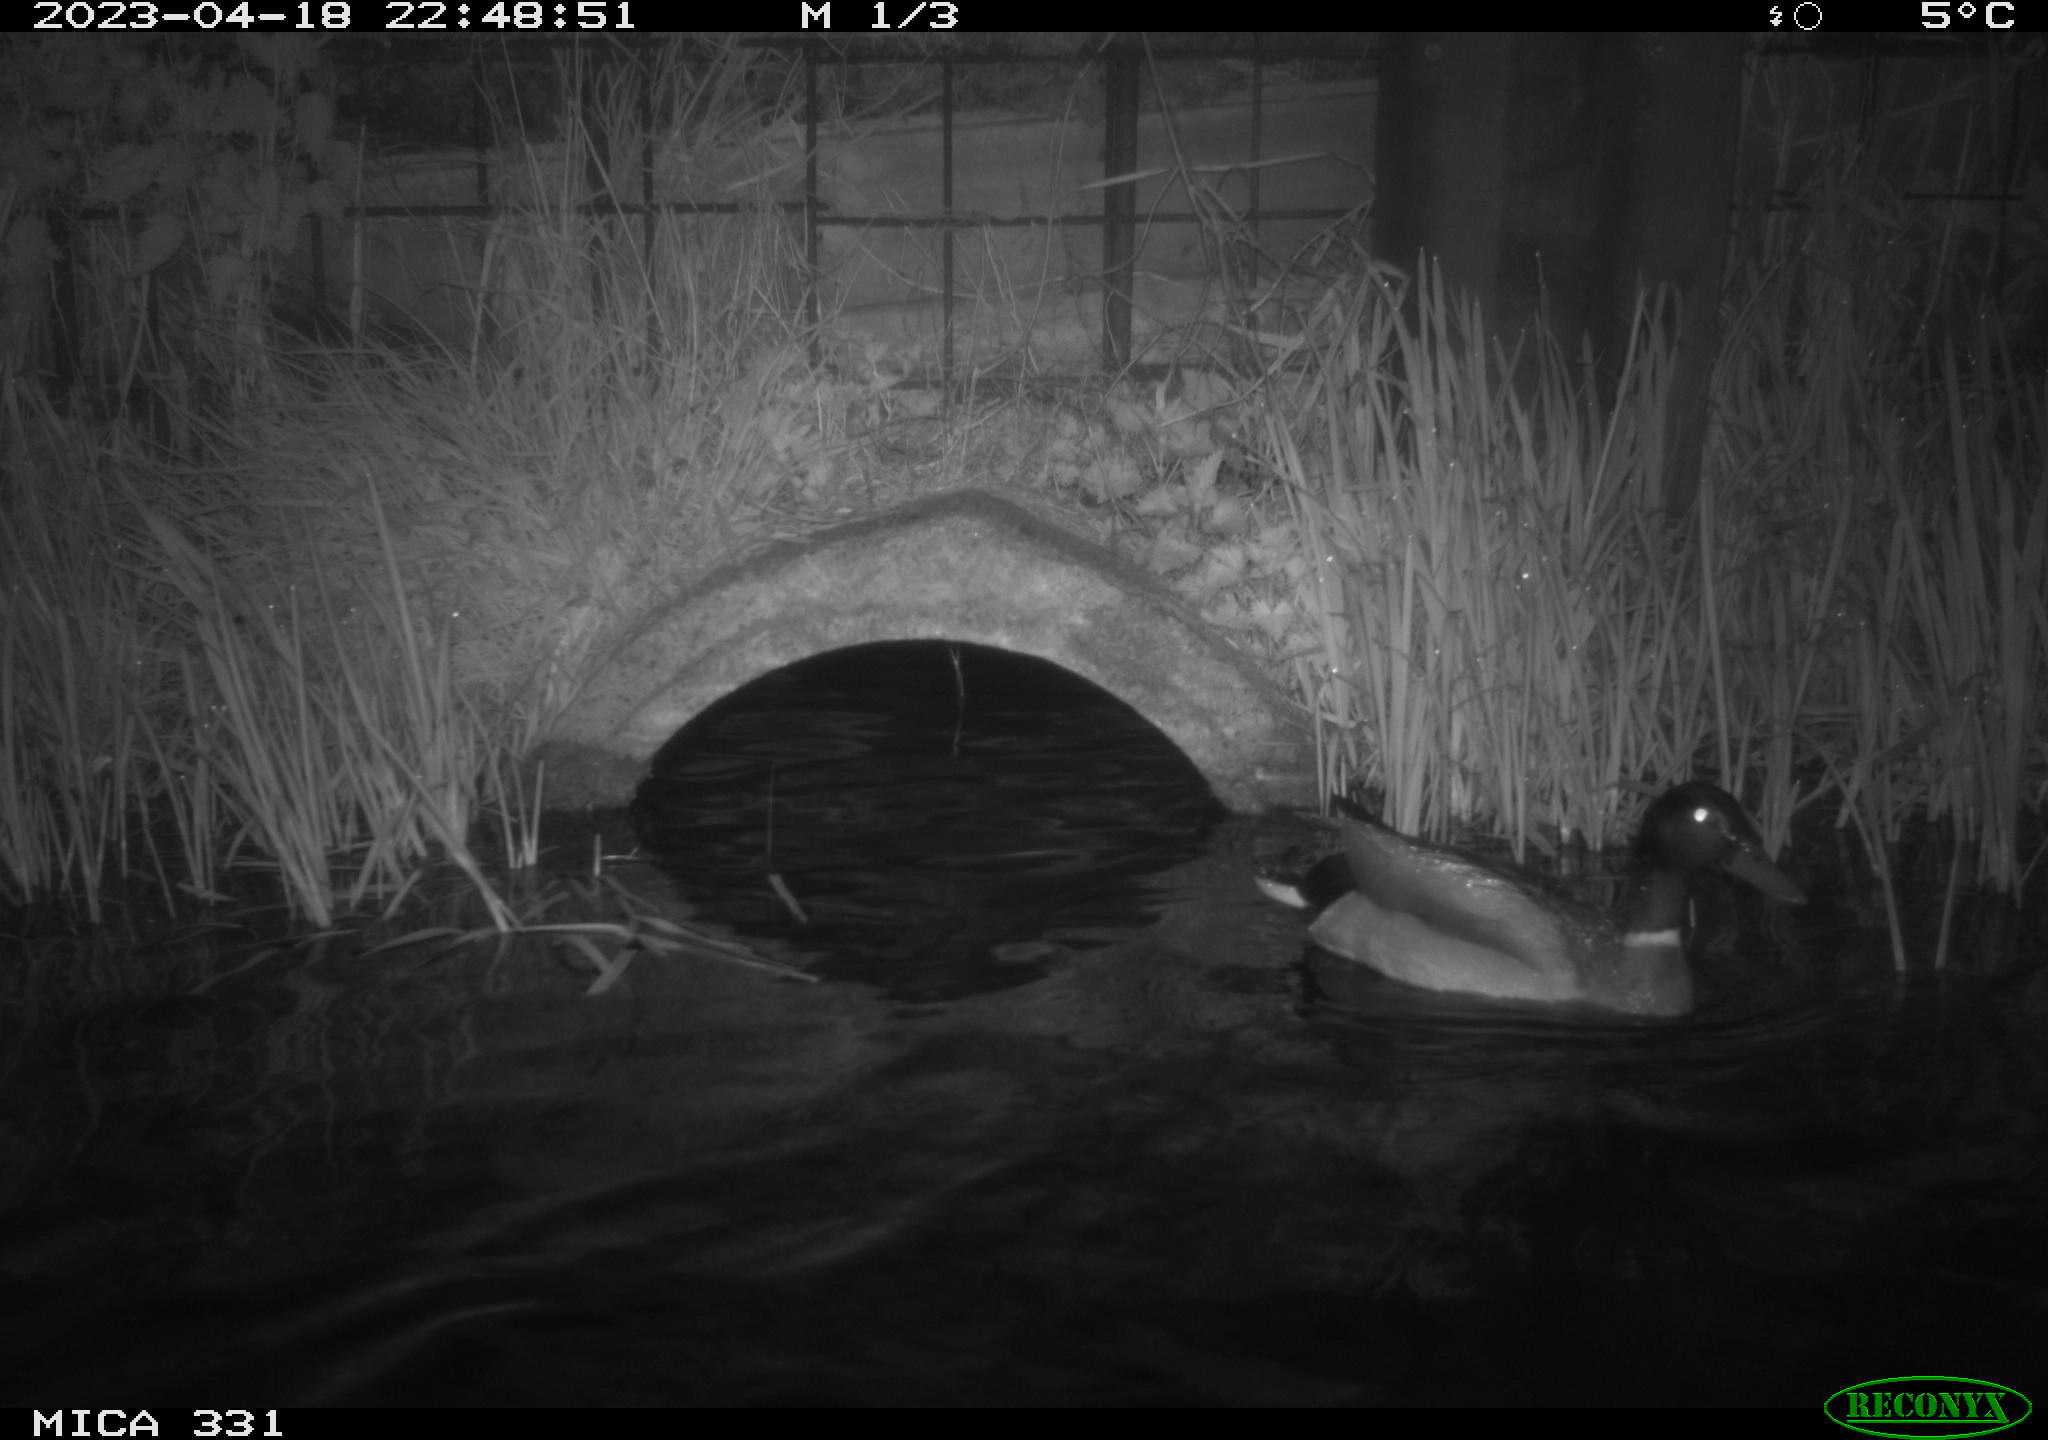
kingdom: Animalia
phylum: Chordata
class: Aves
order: Anseriformes
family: Anatidae
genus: Anas
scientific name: Anas
